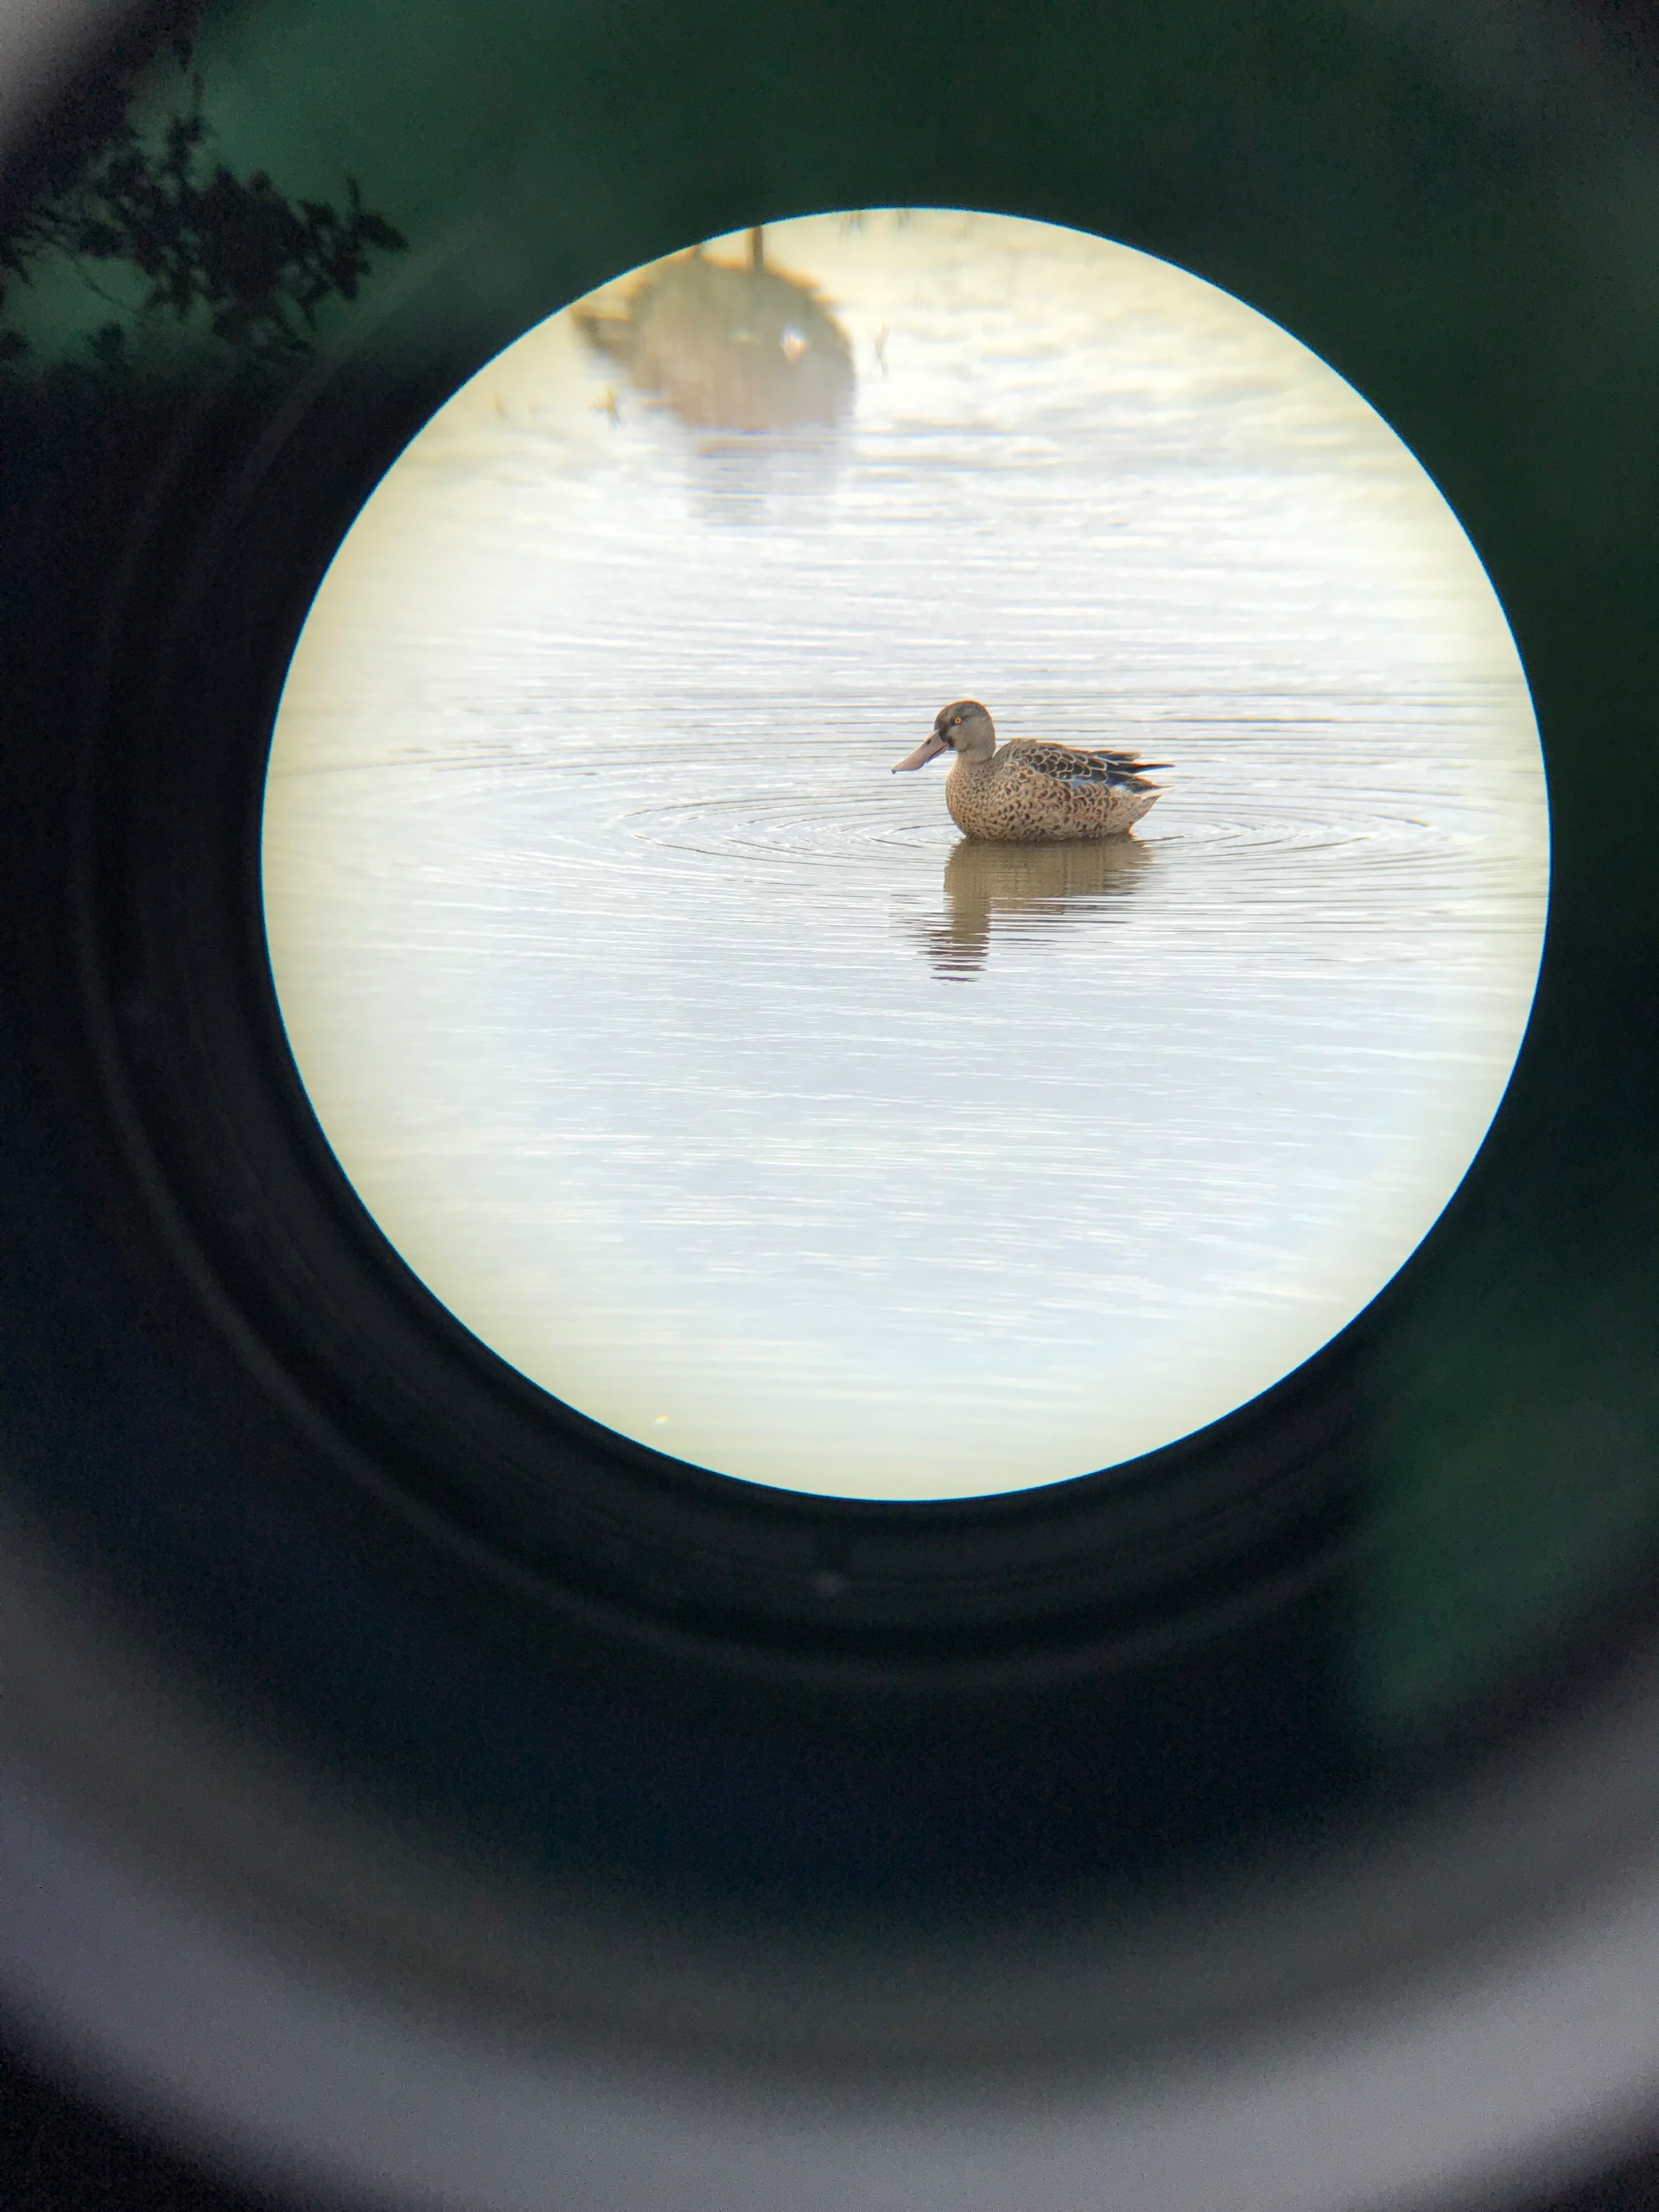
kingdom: Animalia
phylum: Chordata
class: Aves
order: Anseriformes
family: Anatidae
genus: Spatula
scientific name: Spatula clypeata
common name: Skeand
